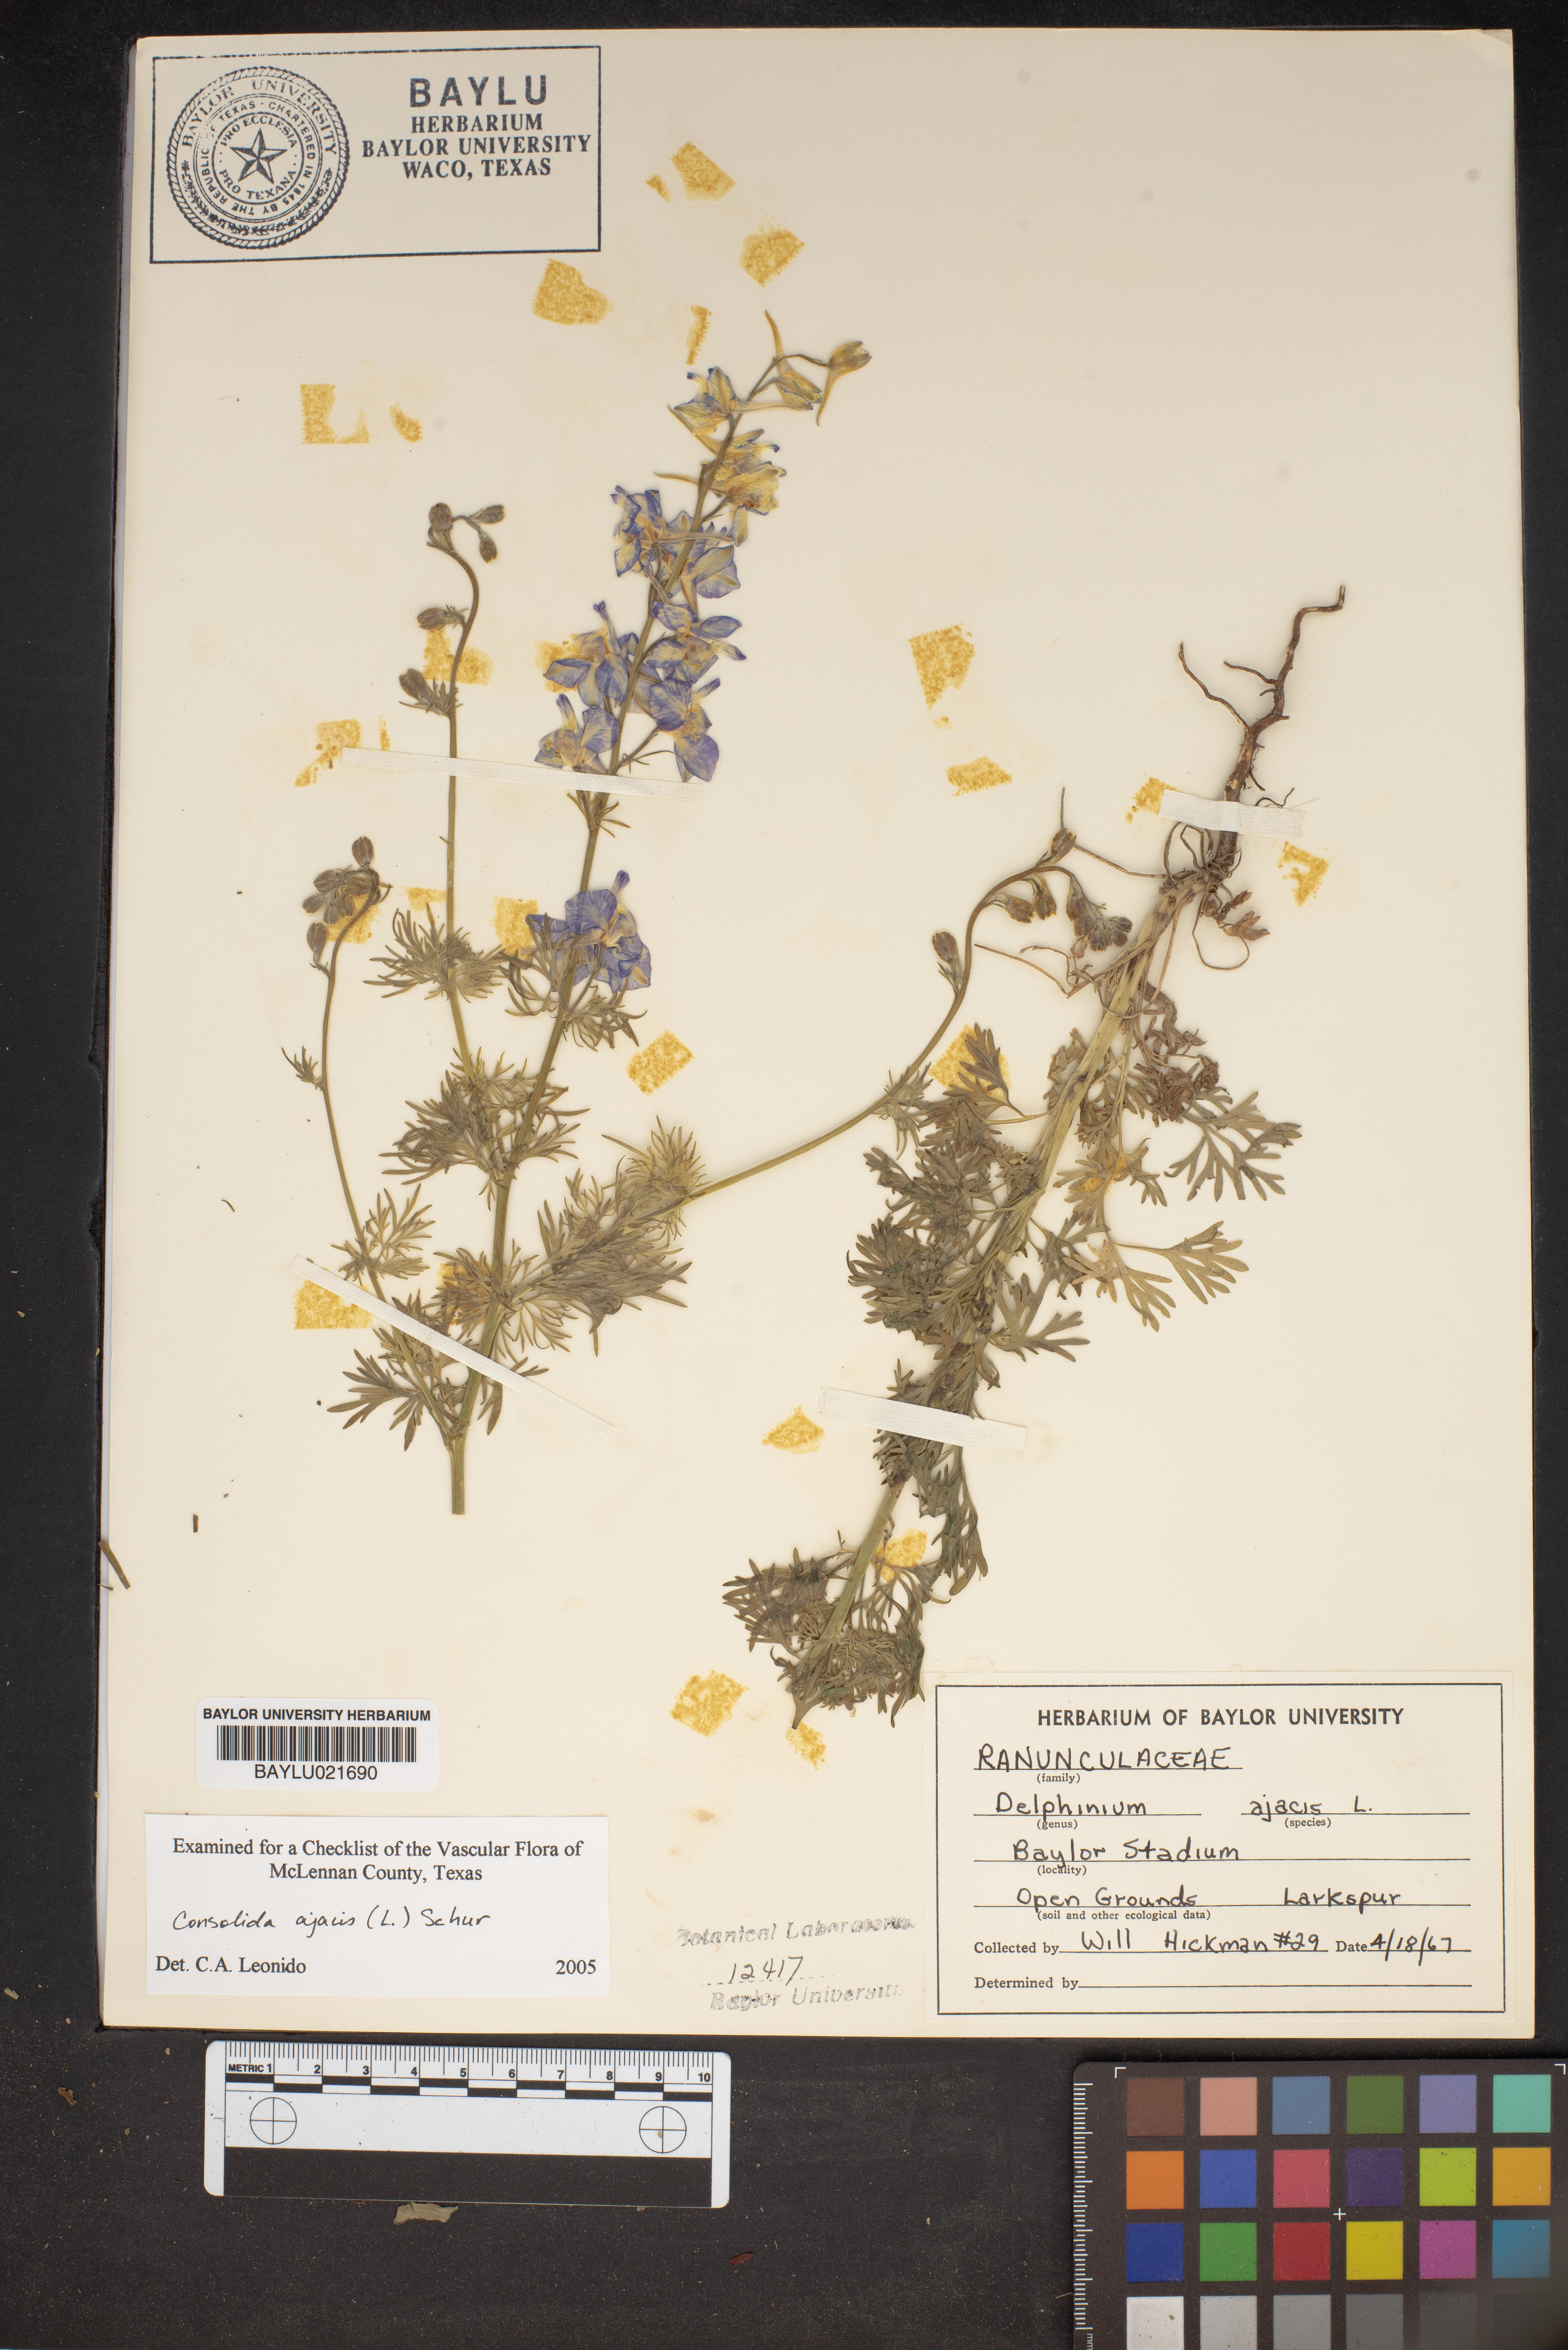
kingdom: Plantae
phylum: Tracheophyta
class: Magnoliopsida
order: Ranunculales
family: Ranunculaceae
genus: Delphinium
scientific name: Delphinium ajacis
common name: Doubtful knight's-spur
